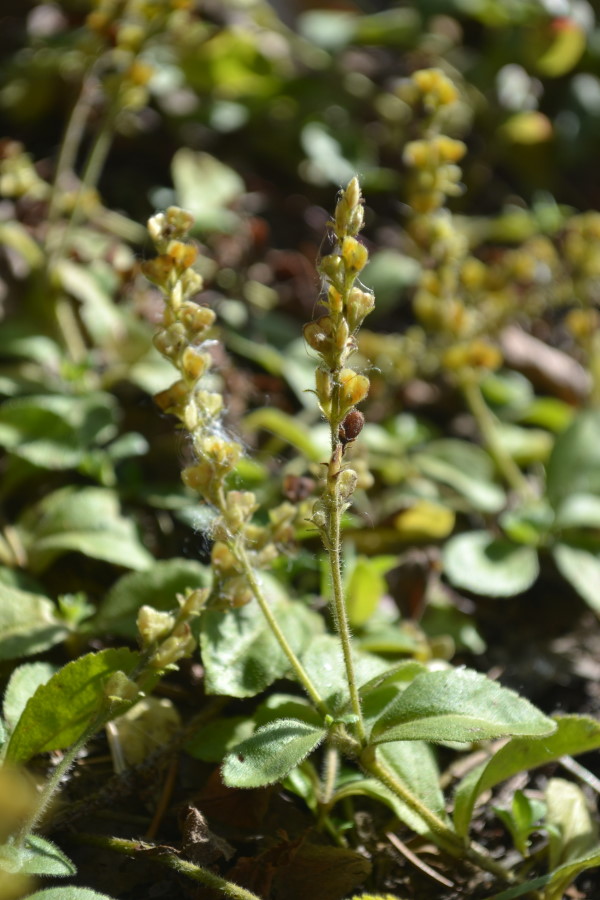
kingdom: Plantae
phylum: Tracheophyta
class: Magnoliopsida
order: Lamiales
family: Plantaginaceae
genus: Veronica
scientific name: Veronica officinalis
